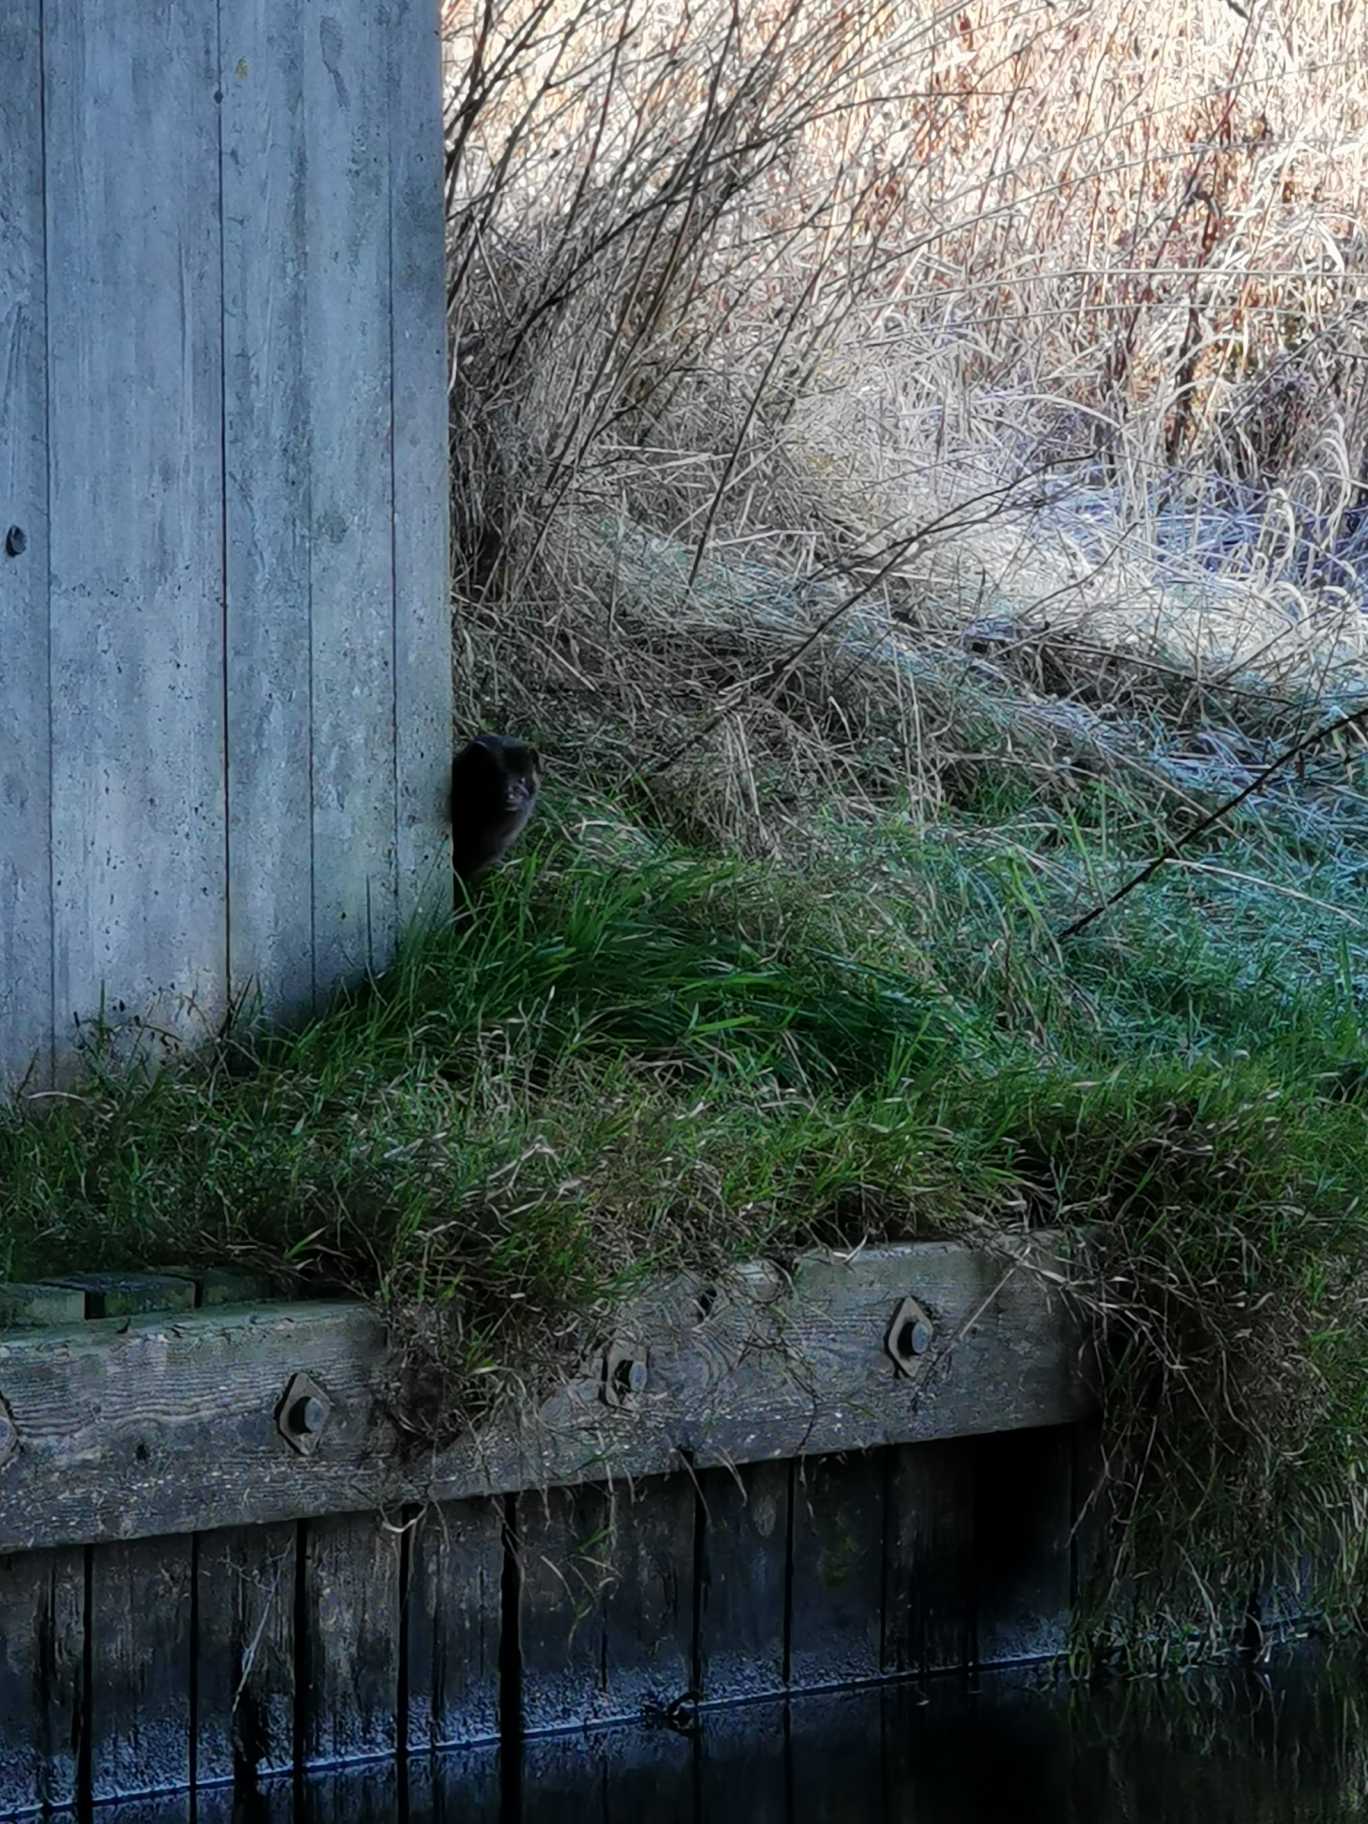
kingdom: Animalia
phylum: Chordata
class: Mammalia
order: Carnivora
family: Mustelidae
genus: Mustela
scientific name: Mustela vison
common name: Mink
